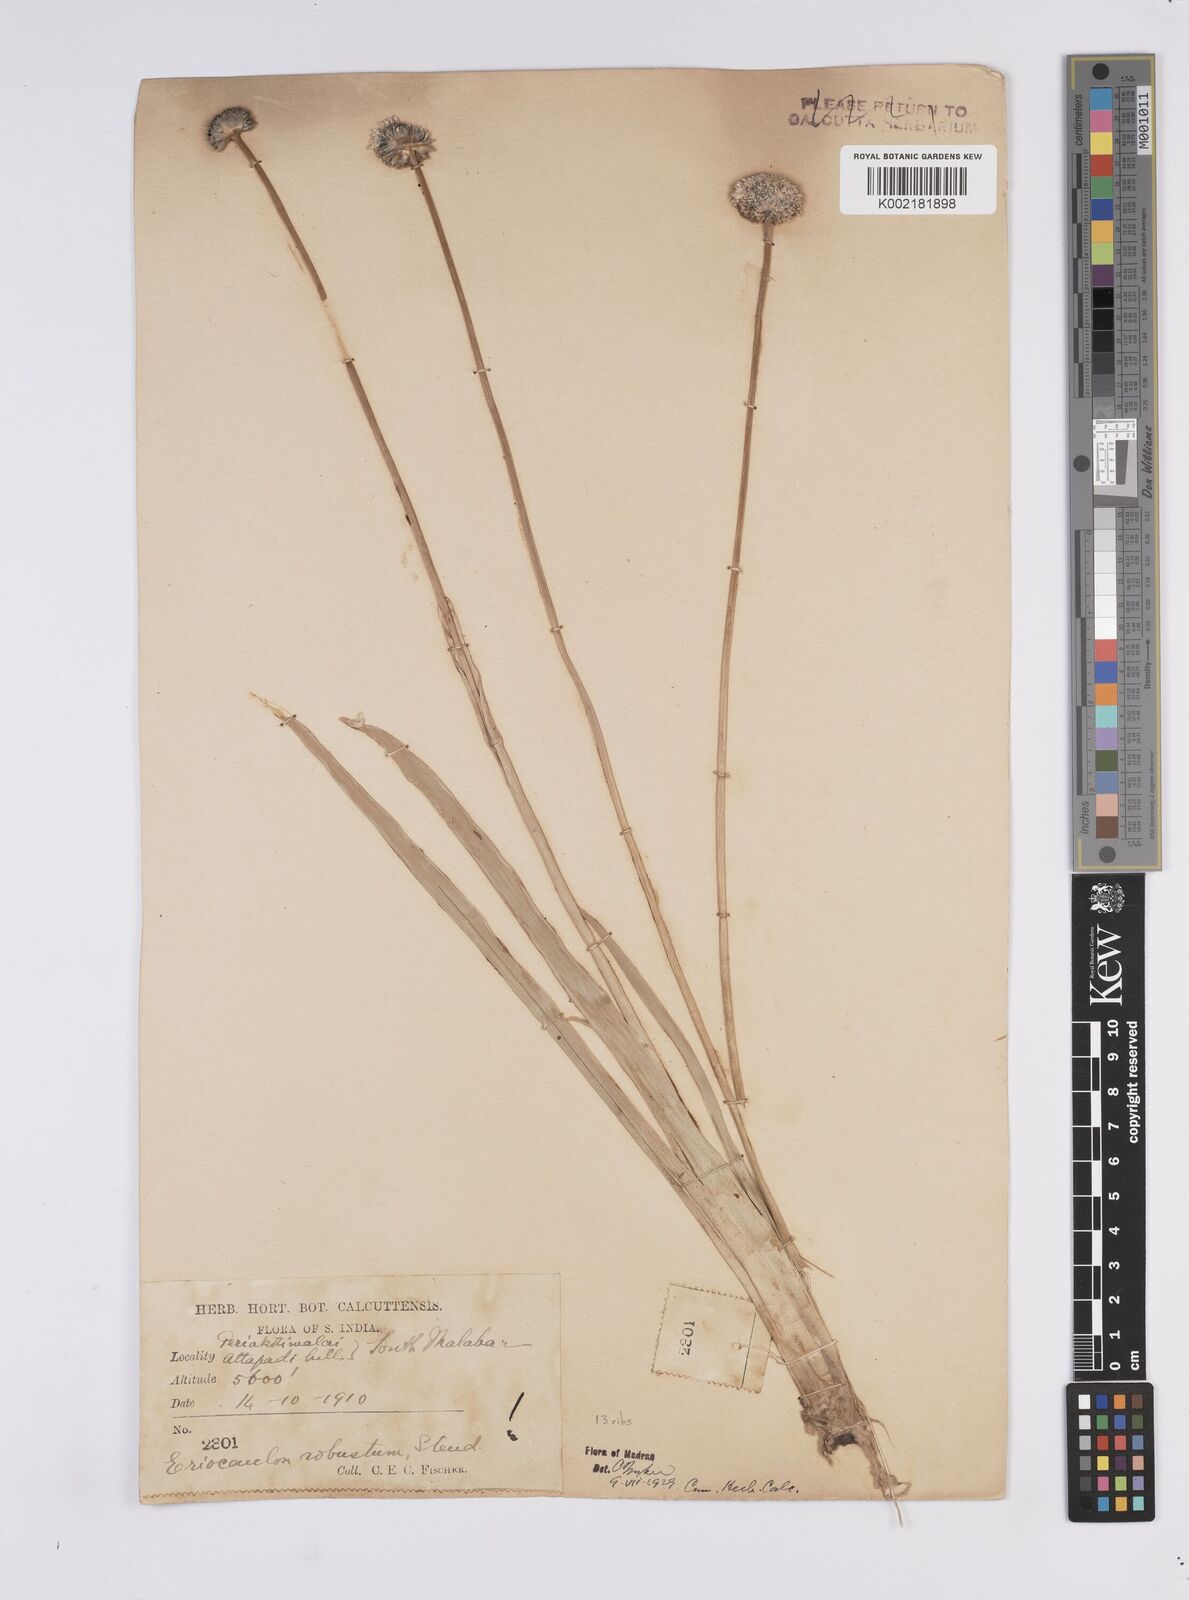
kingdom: Plantae
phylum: Tracheophyta
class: Liliopsida
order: Poales
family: Eriocaulaceae
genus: Eriocaulon
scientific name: Eriocaulon robustum
